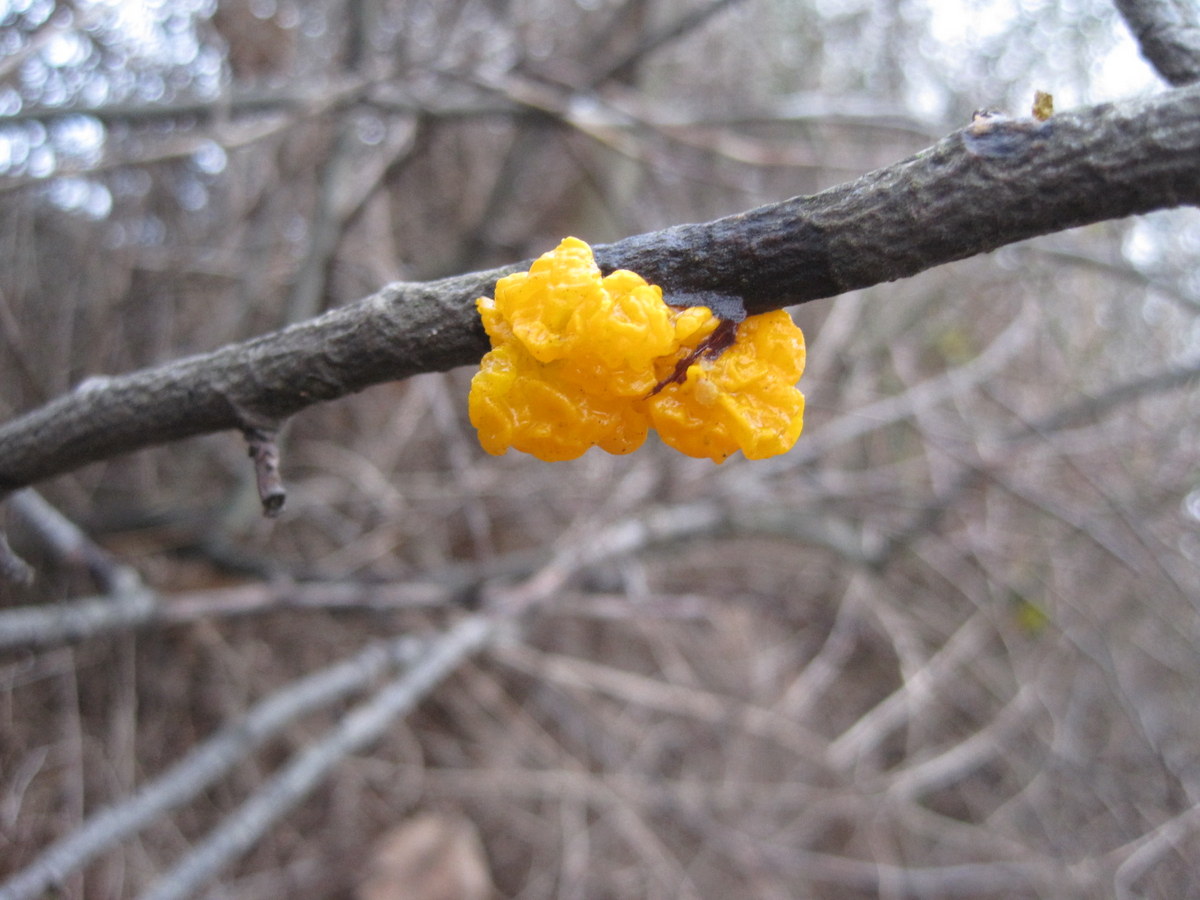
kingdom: Fungi
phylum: Basidiomycota
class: Tremellomycetes
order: Tremellales
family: Tremellaceae
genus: Tremella
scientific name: Tremella mesenterica
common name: gul bævresvamp
